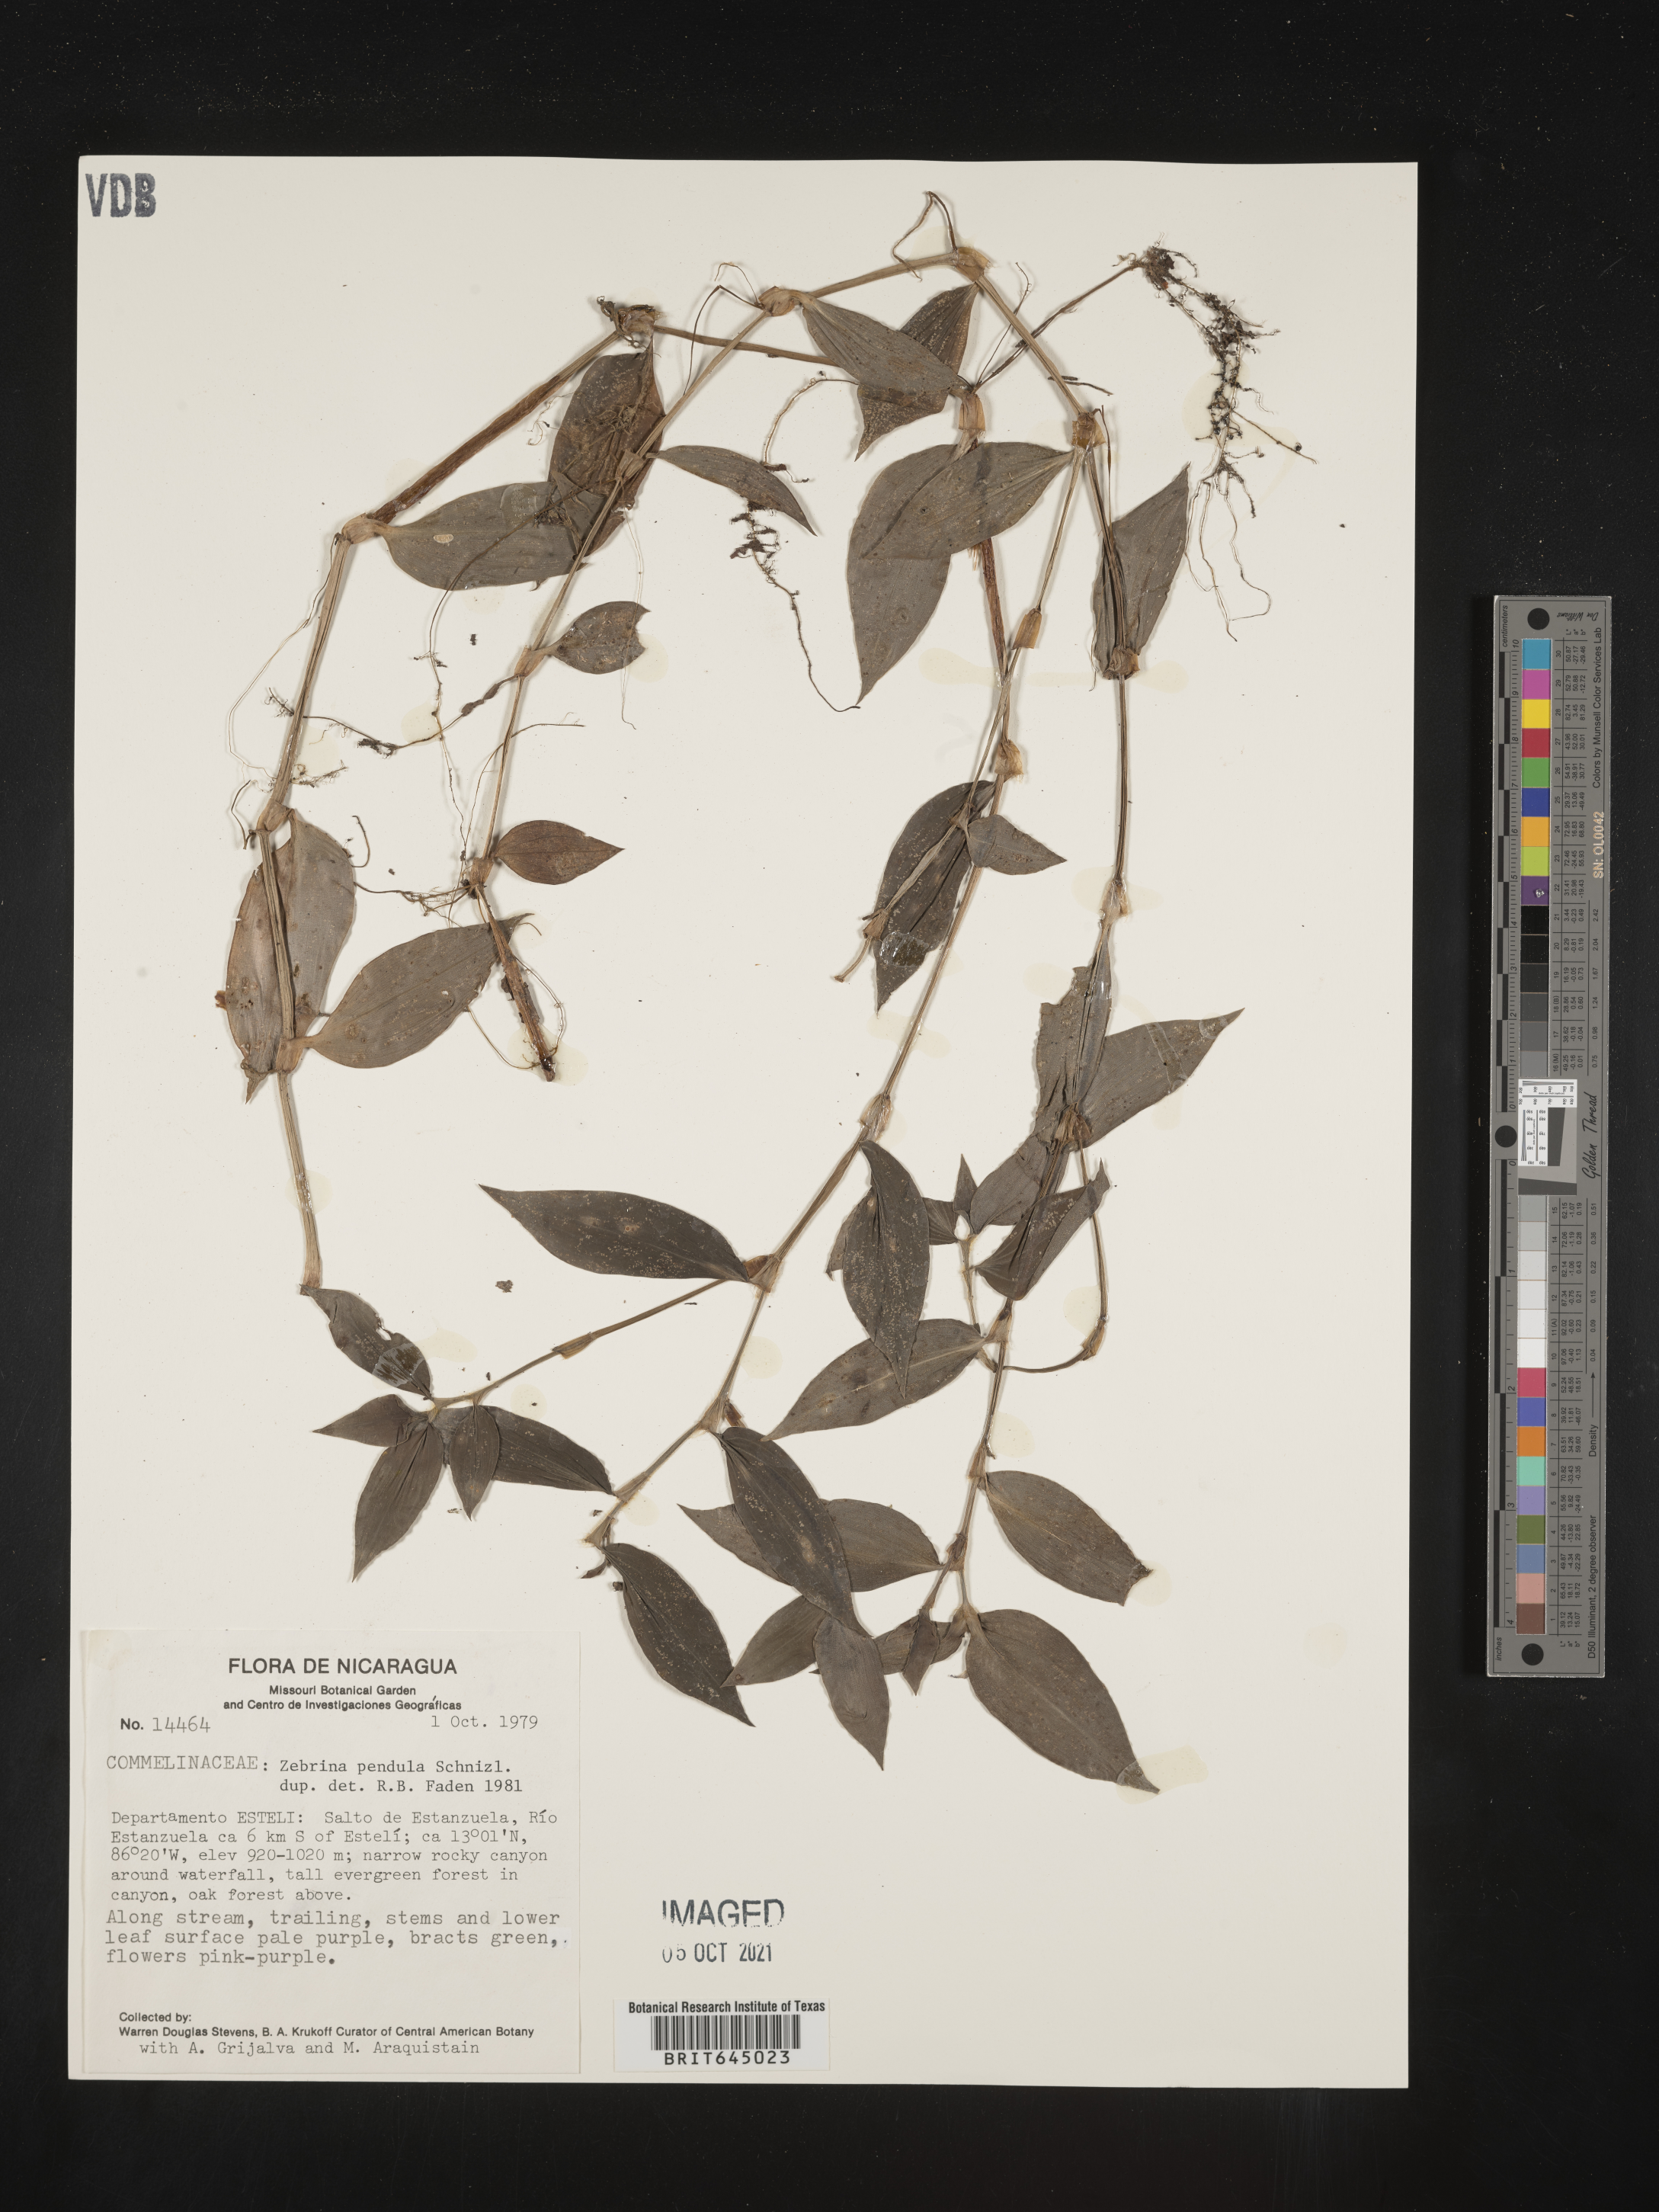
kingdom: Plantae
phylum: Tracheophyta
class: Liliopsida
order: Commelinales
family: Commelinaceae
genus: Tradescantia
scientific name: Tradescantia zebrina
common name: Inchplant
